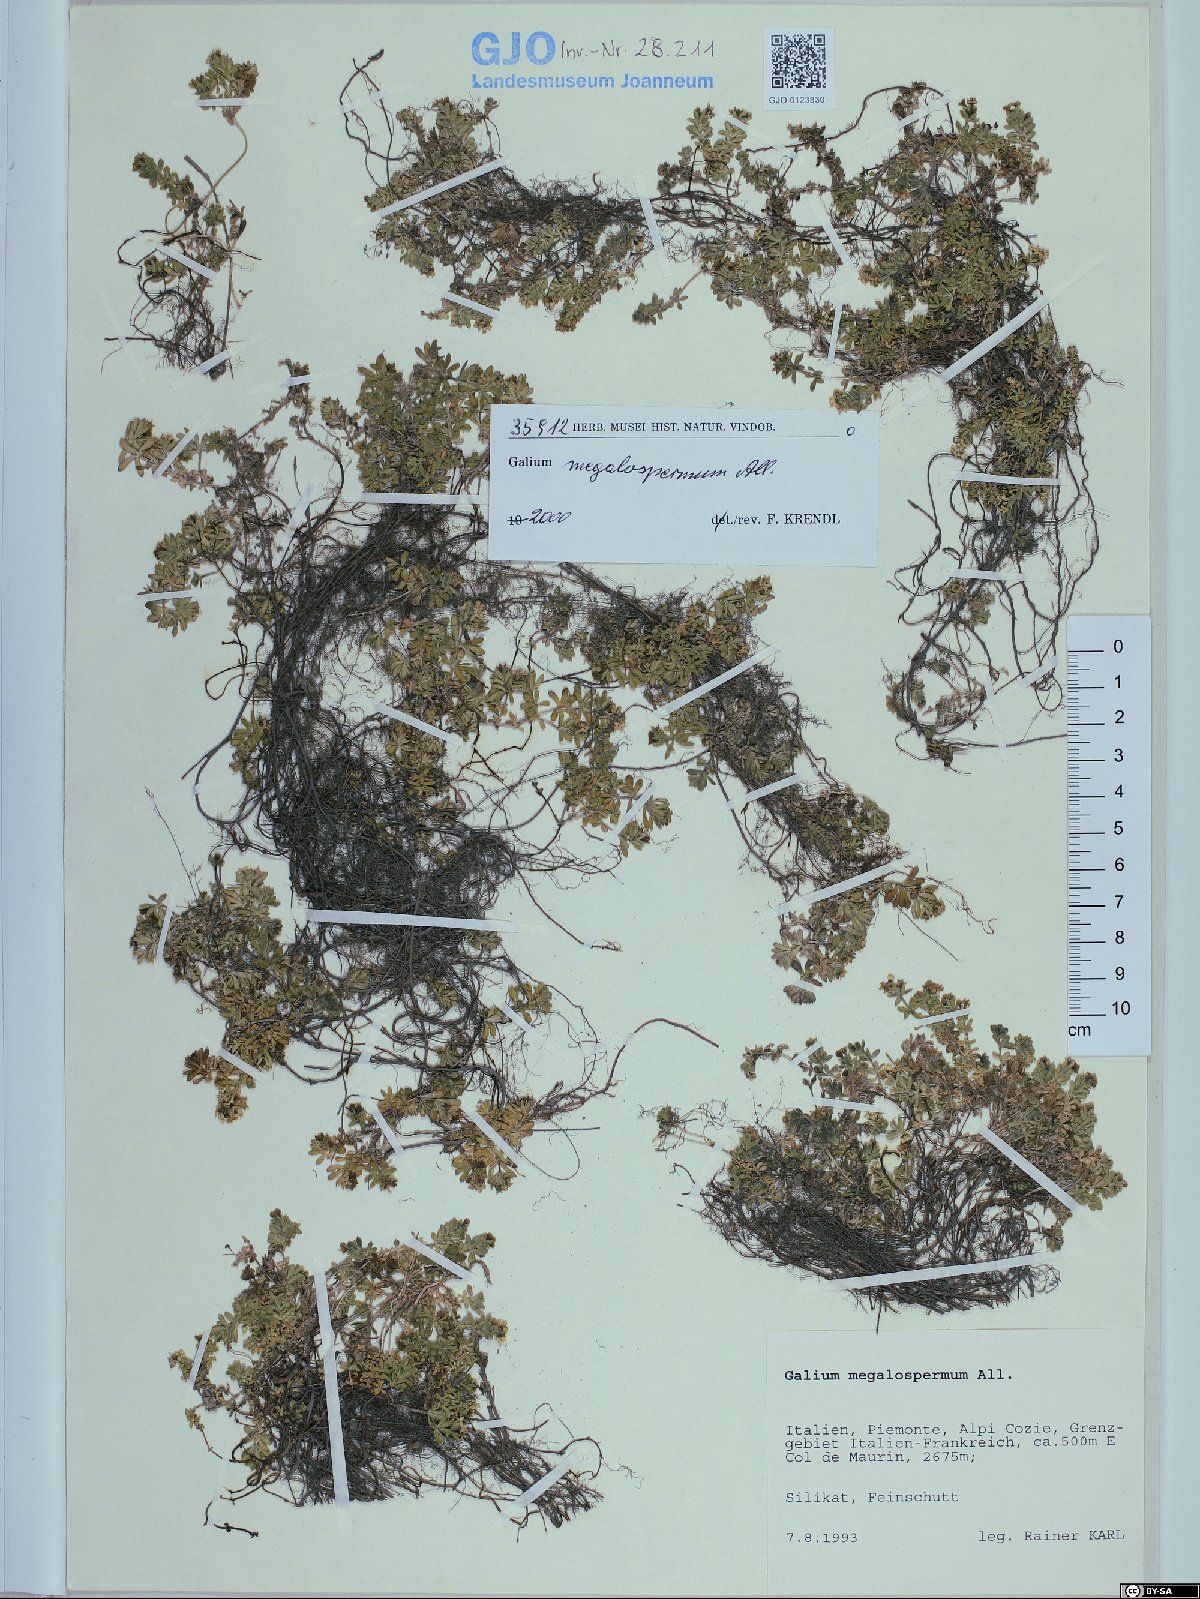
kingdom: Plantae
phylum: Tracheophyta
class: Magnoliopsida
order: Gentianales
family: Rubiaceae
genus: Galium
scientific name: Galium megalospermum
